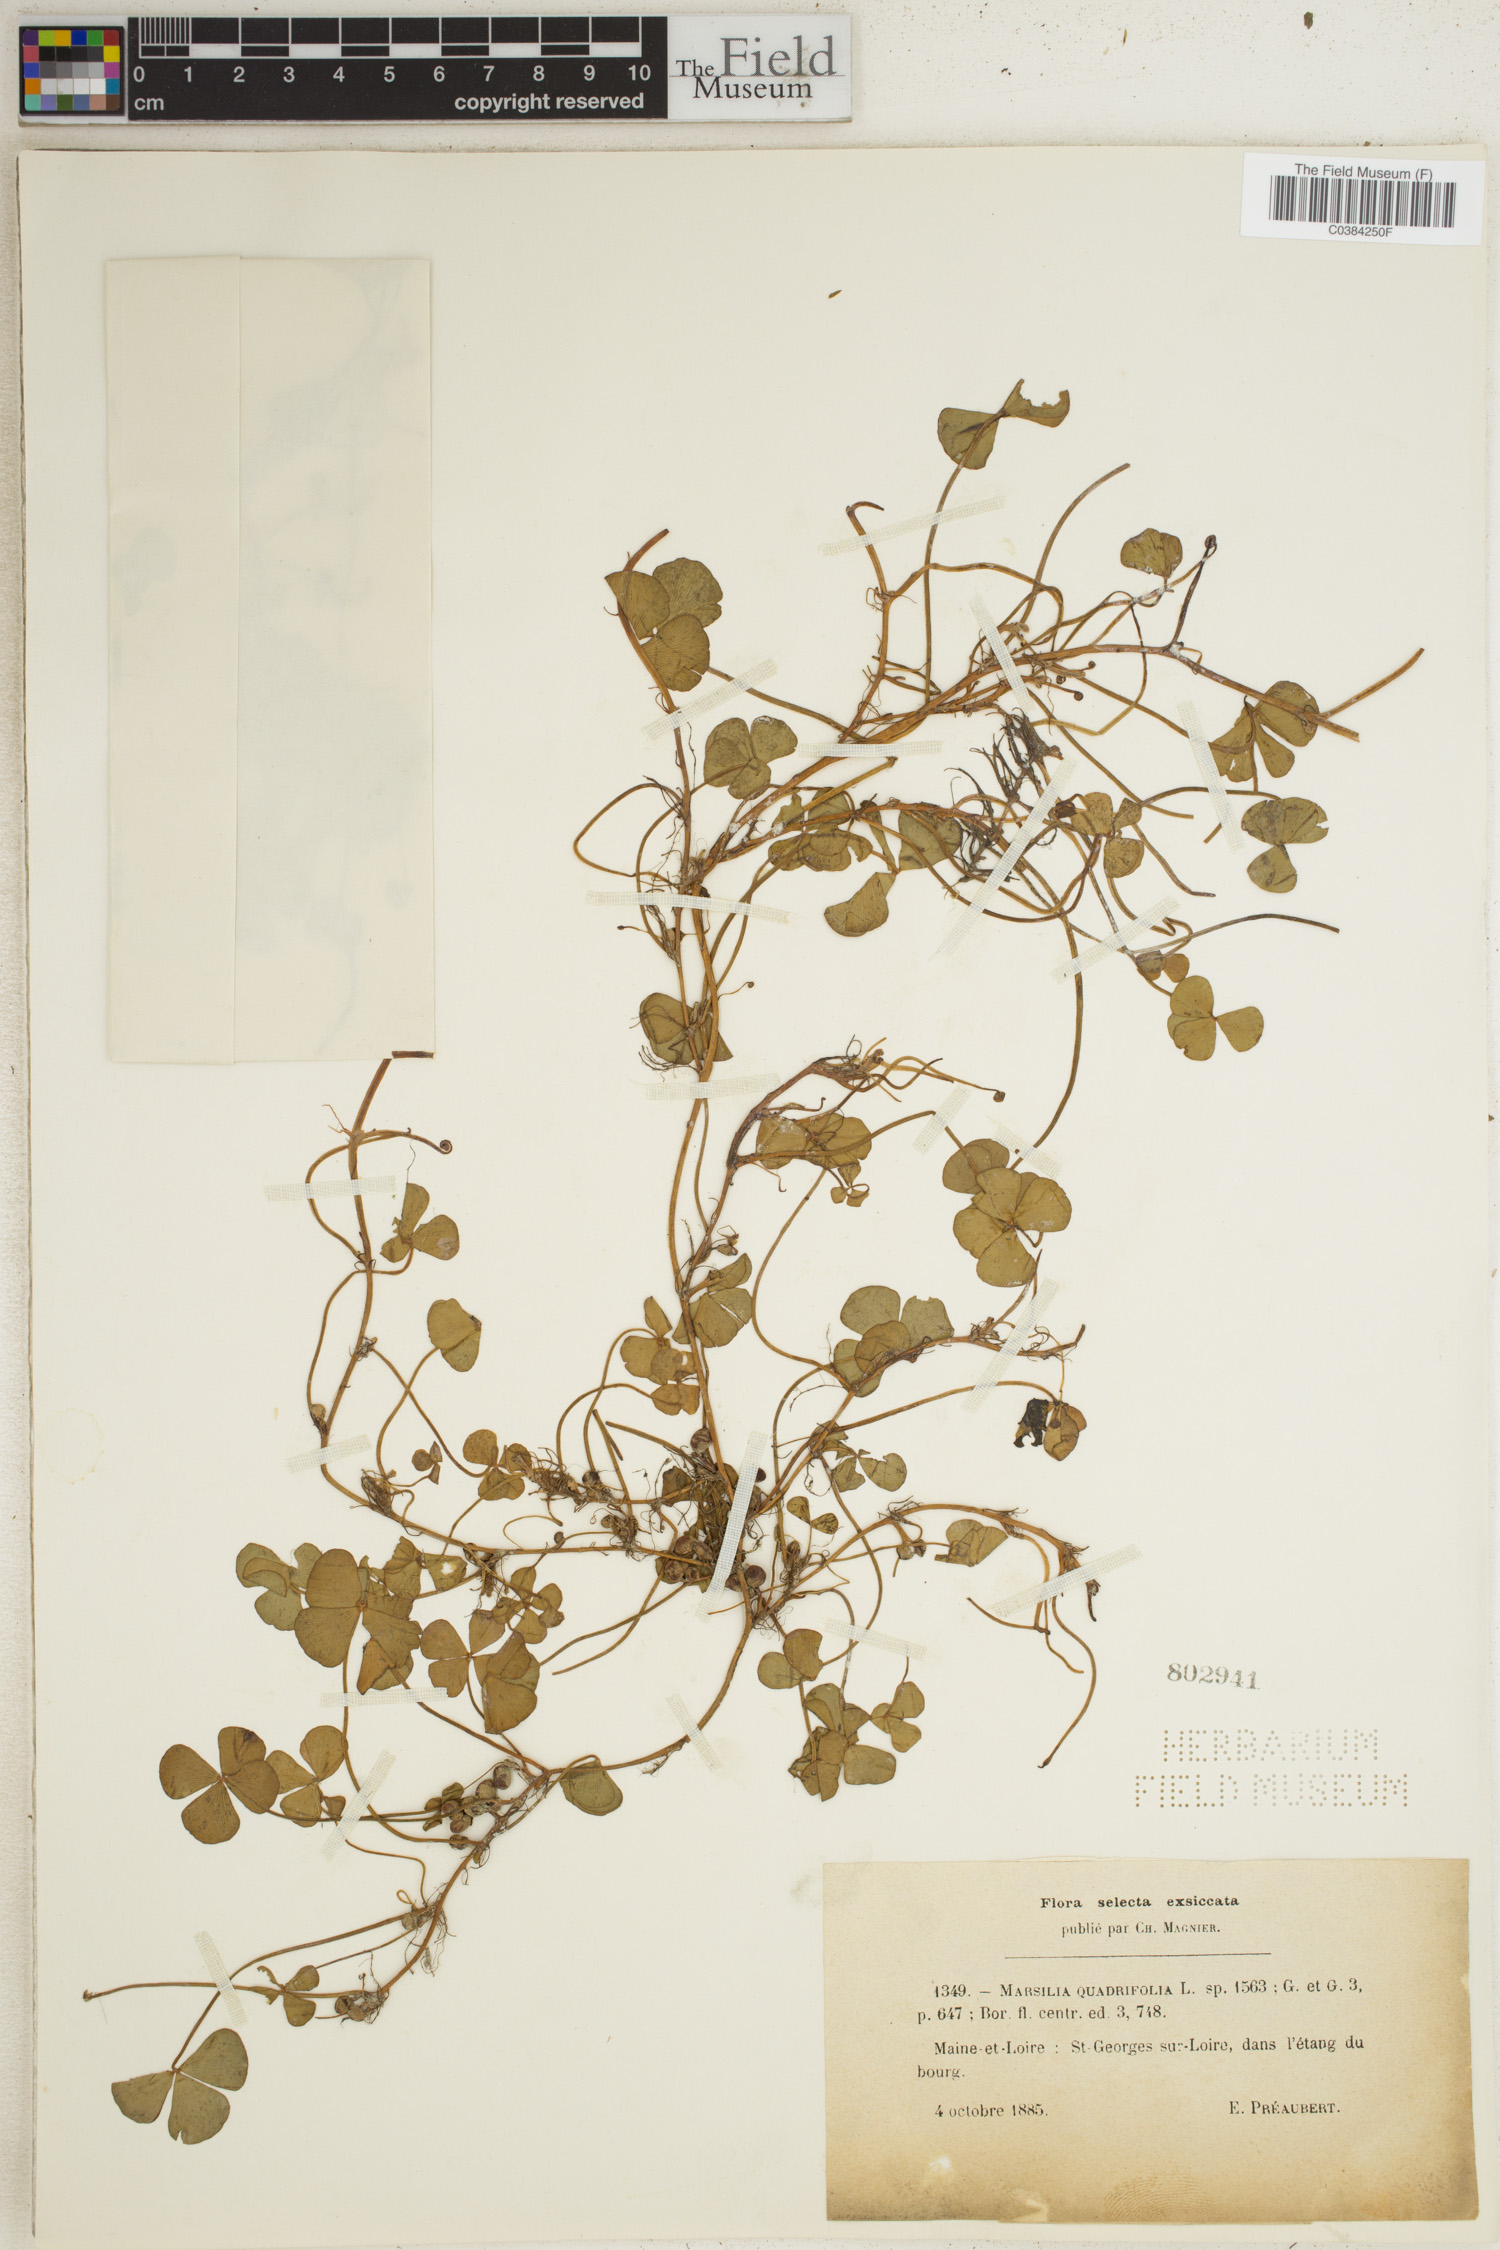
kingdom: Plantae
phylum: Tracheophyta
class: Polypodiopsida
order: Salviniales
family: Marsileaceae
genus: Marsilea
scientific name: Marsilea quadrifolia
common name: Water shamrock
